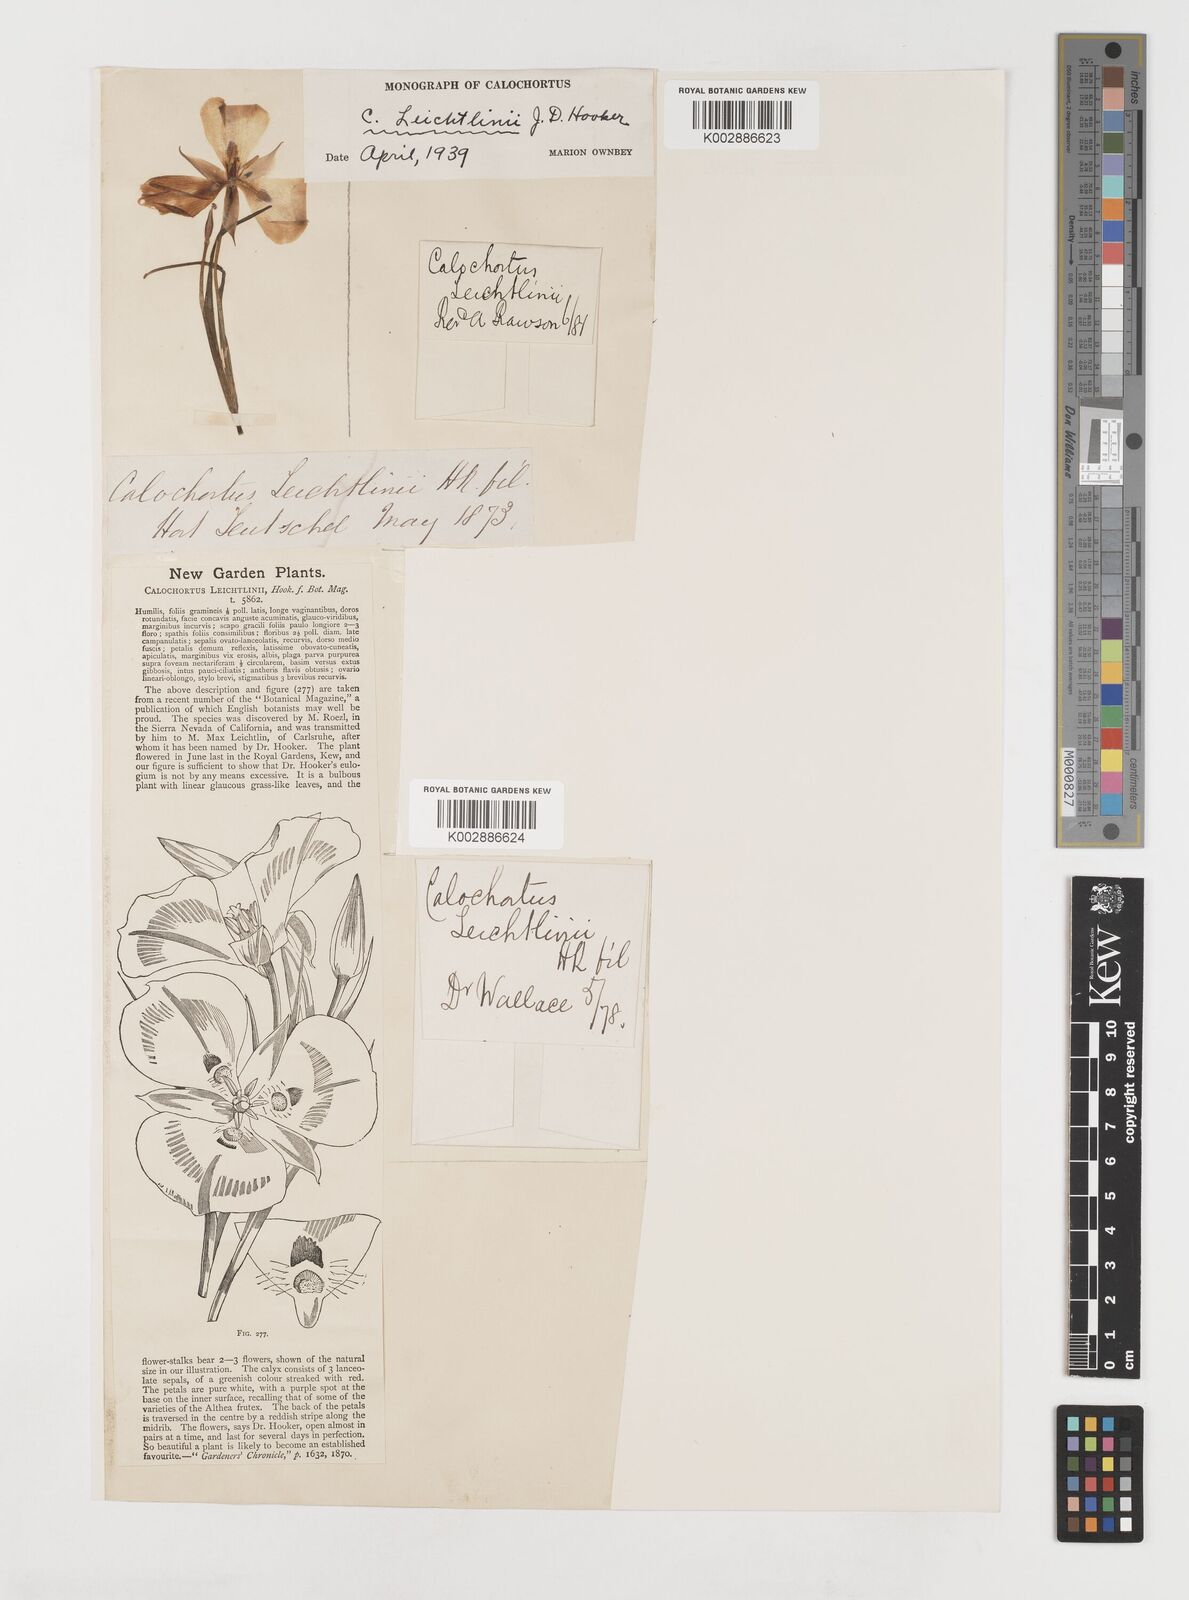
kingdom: Plantae
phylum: Tracheophyta
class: Liliopsida
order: Liliales
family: Liliaceae
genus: Calochortus
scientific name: Calochortus leichtlinii
